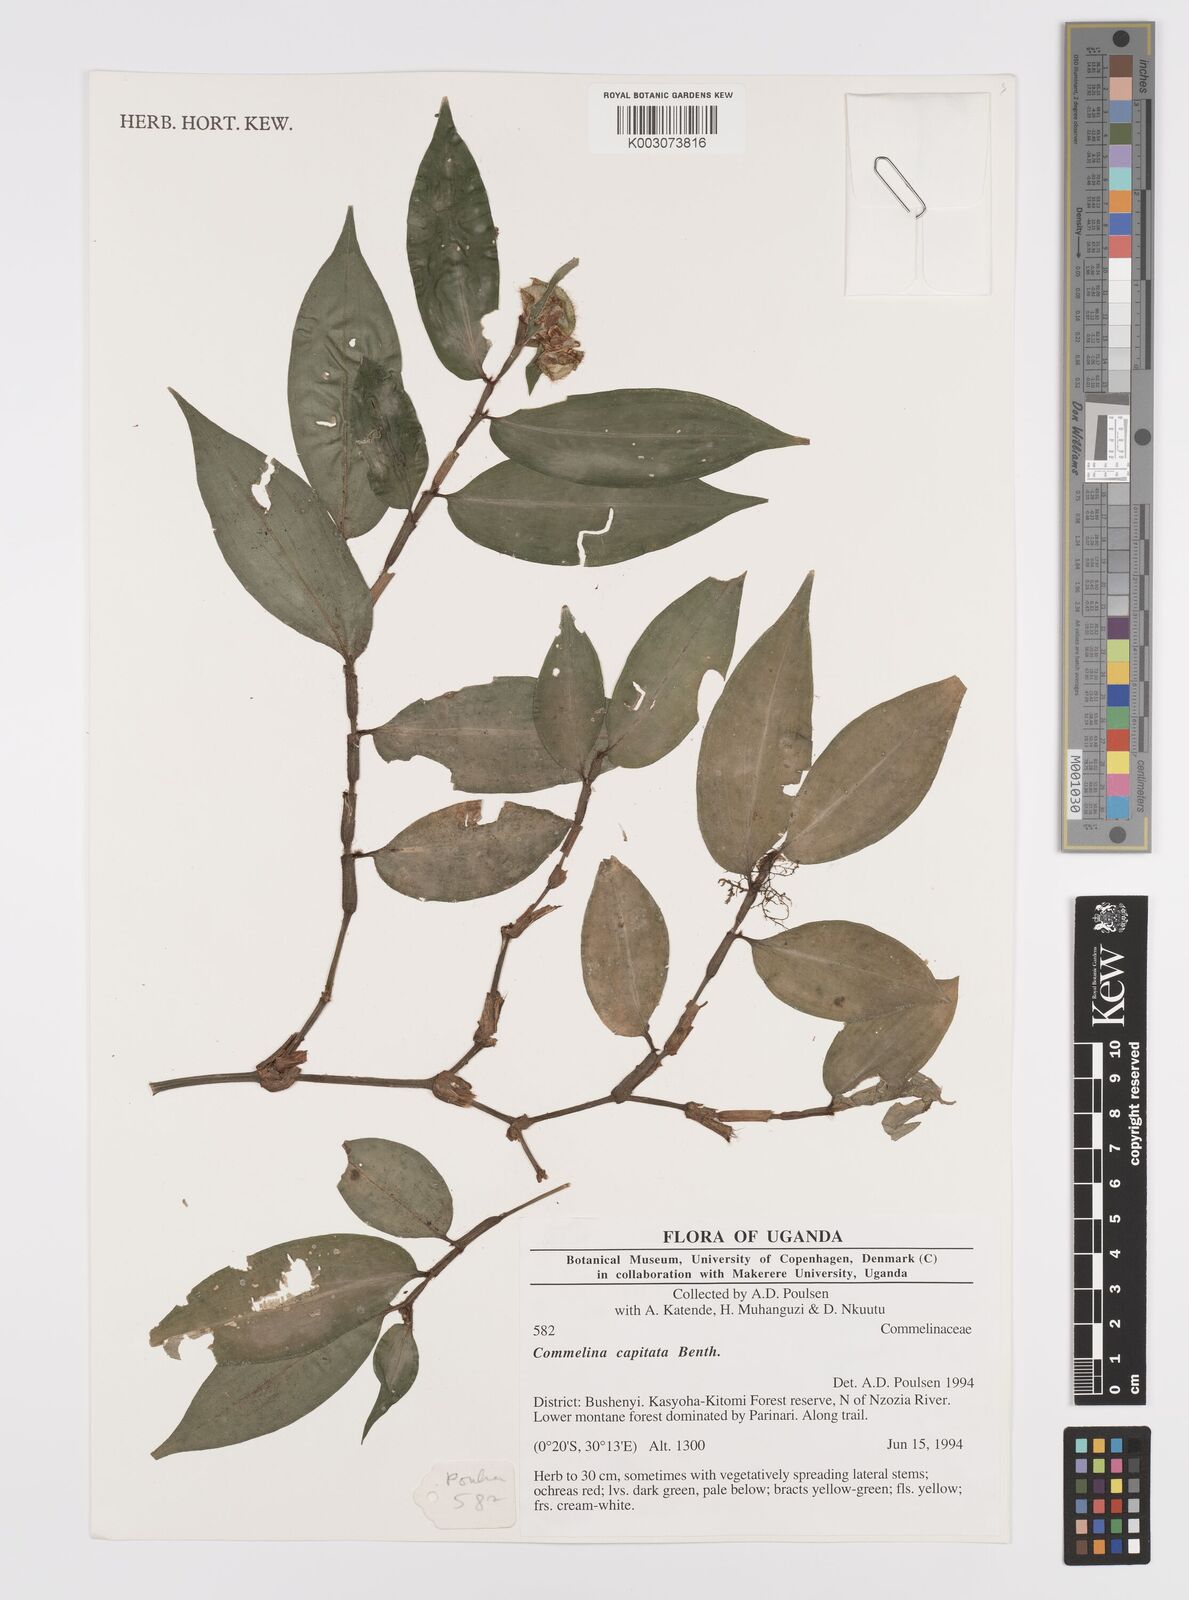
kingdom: Plantae
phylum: Tracheophyta
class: Liliopsida
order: Commelinales
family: Commelinaceae
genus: Commelina
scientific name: Commelina capitata
